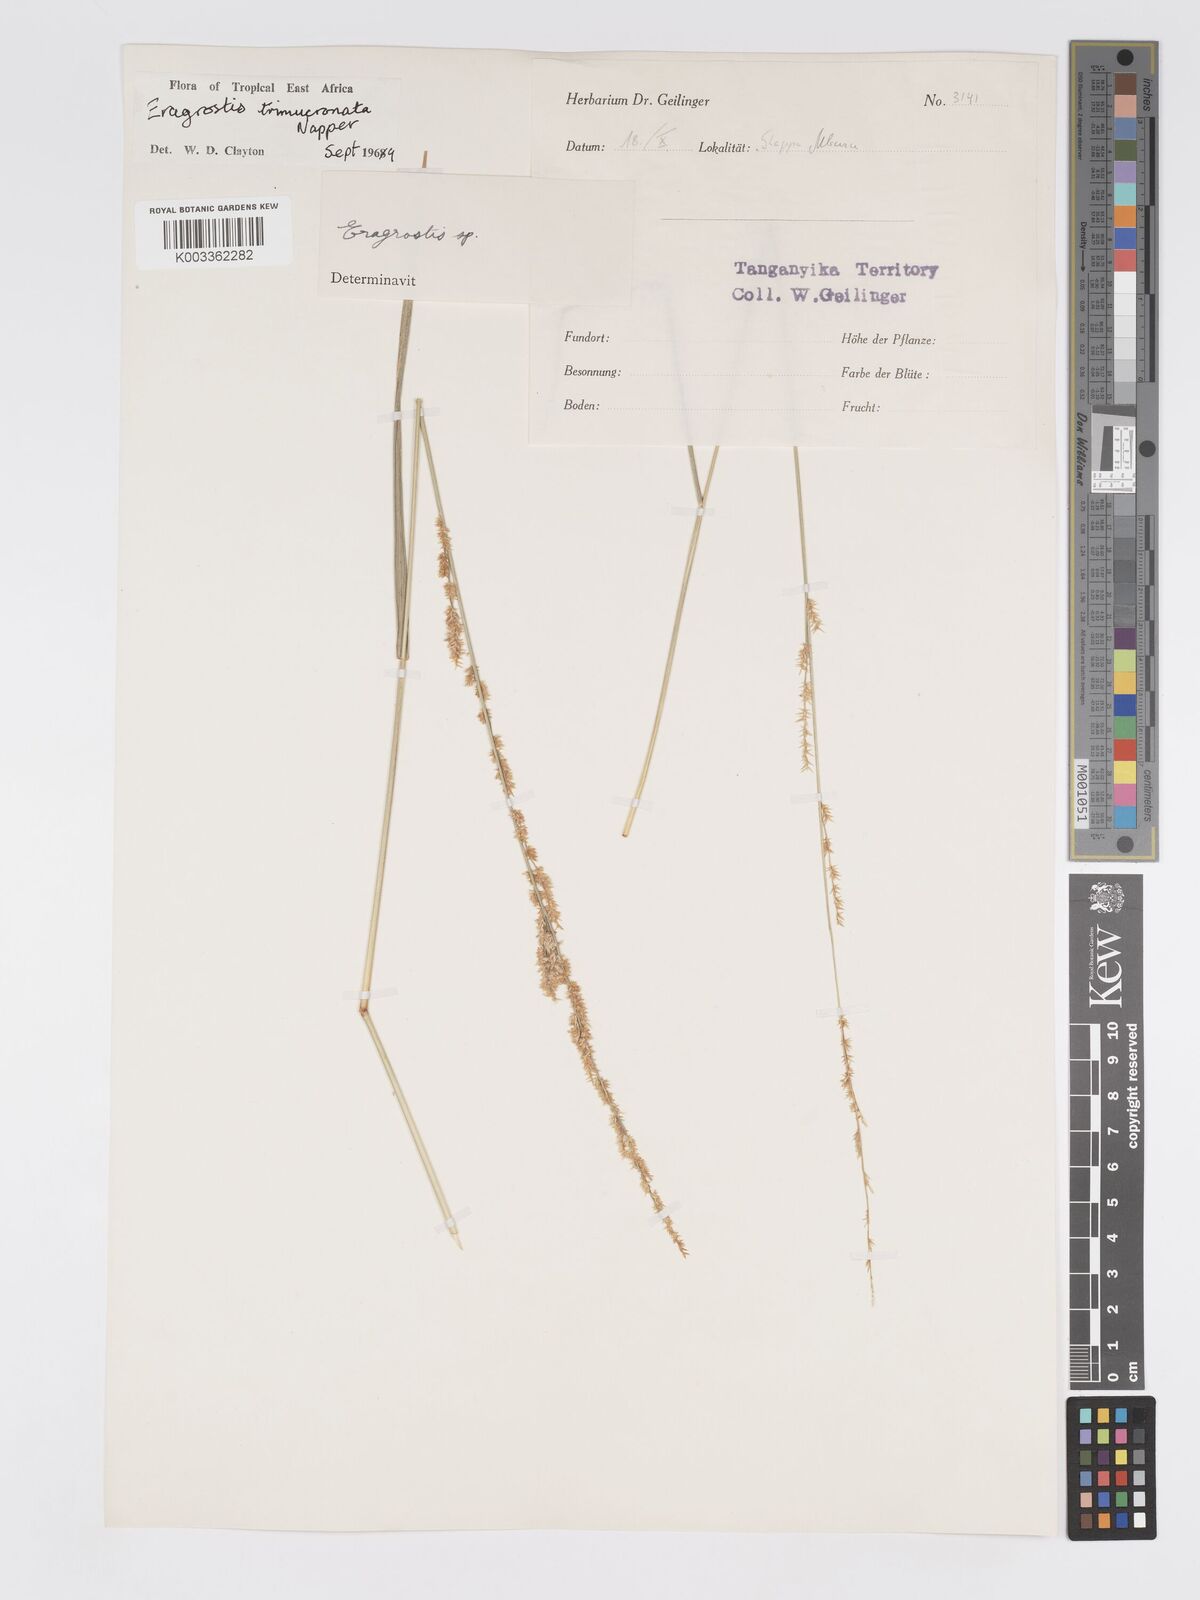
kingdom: Plantae
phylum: Tracheophyta
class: Liliopsida
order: Poales
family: Poaceae
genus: Eragrostis
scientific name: Eragrostis trimucronata
